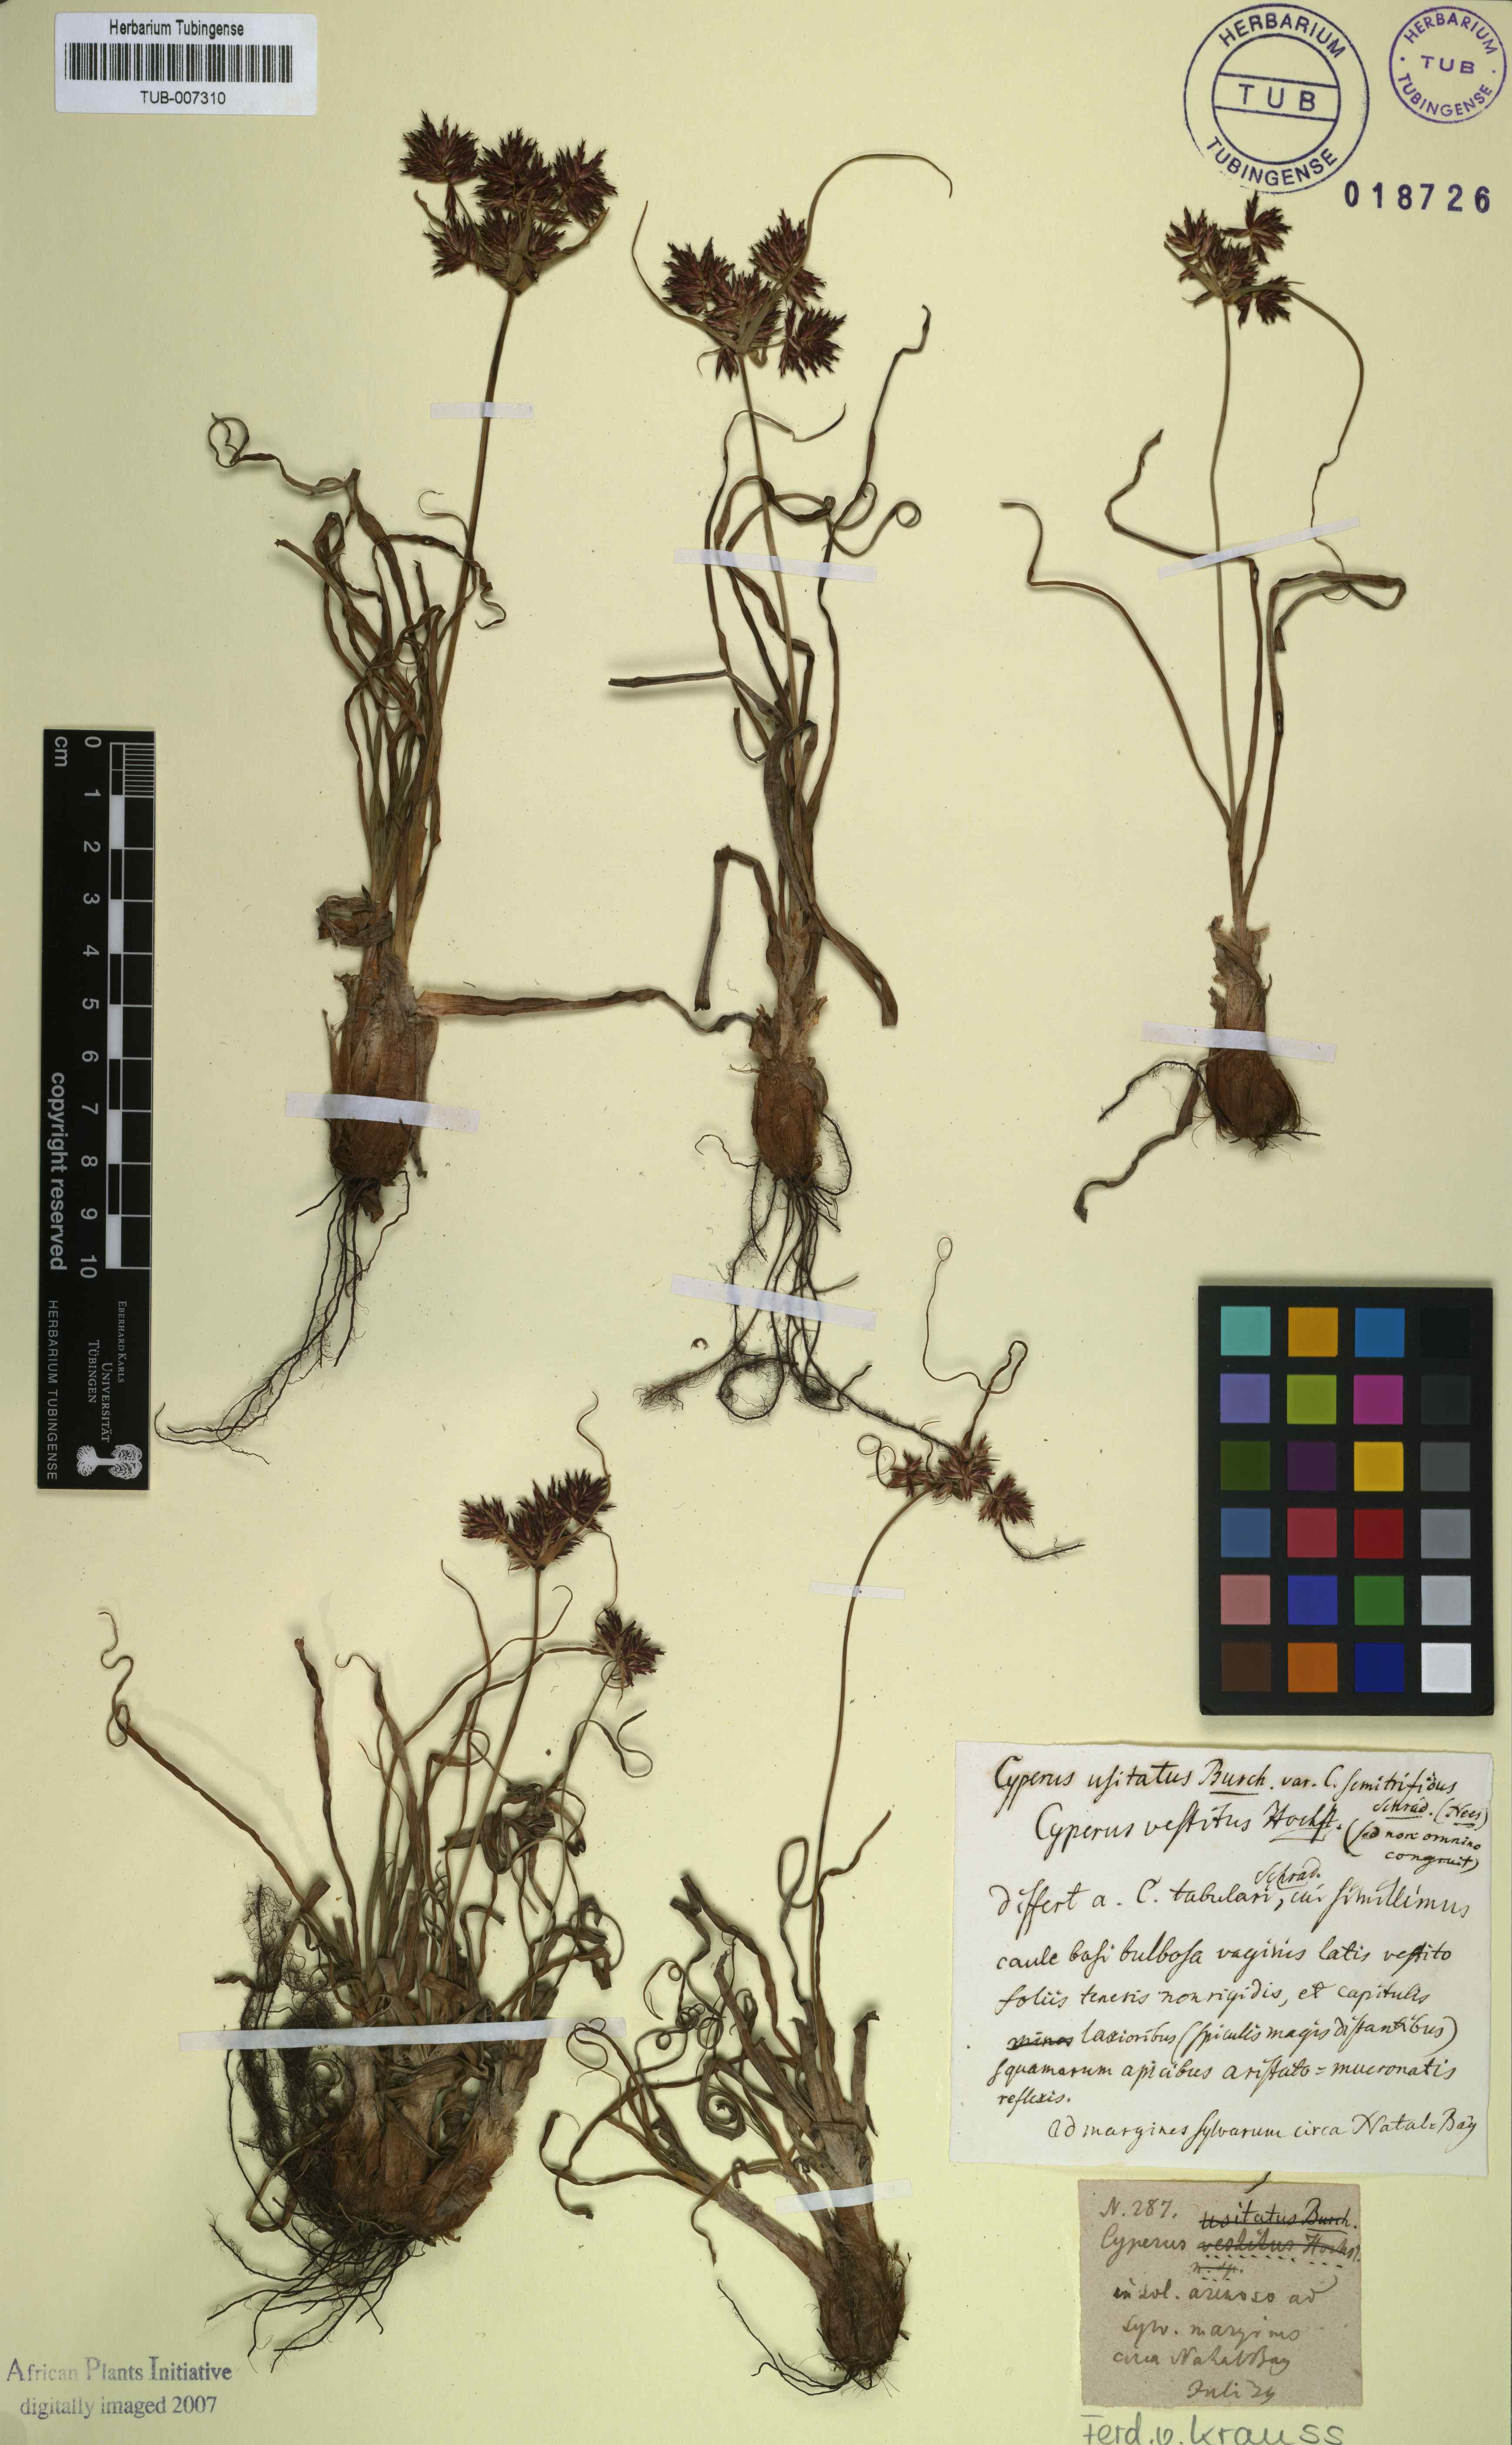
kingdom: Plantae
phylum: Tracheophyta
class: Liliopsida
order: Poales
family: Cyperaceae
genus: Cyperus
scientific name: Cyperus vestitus
